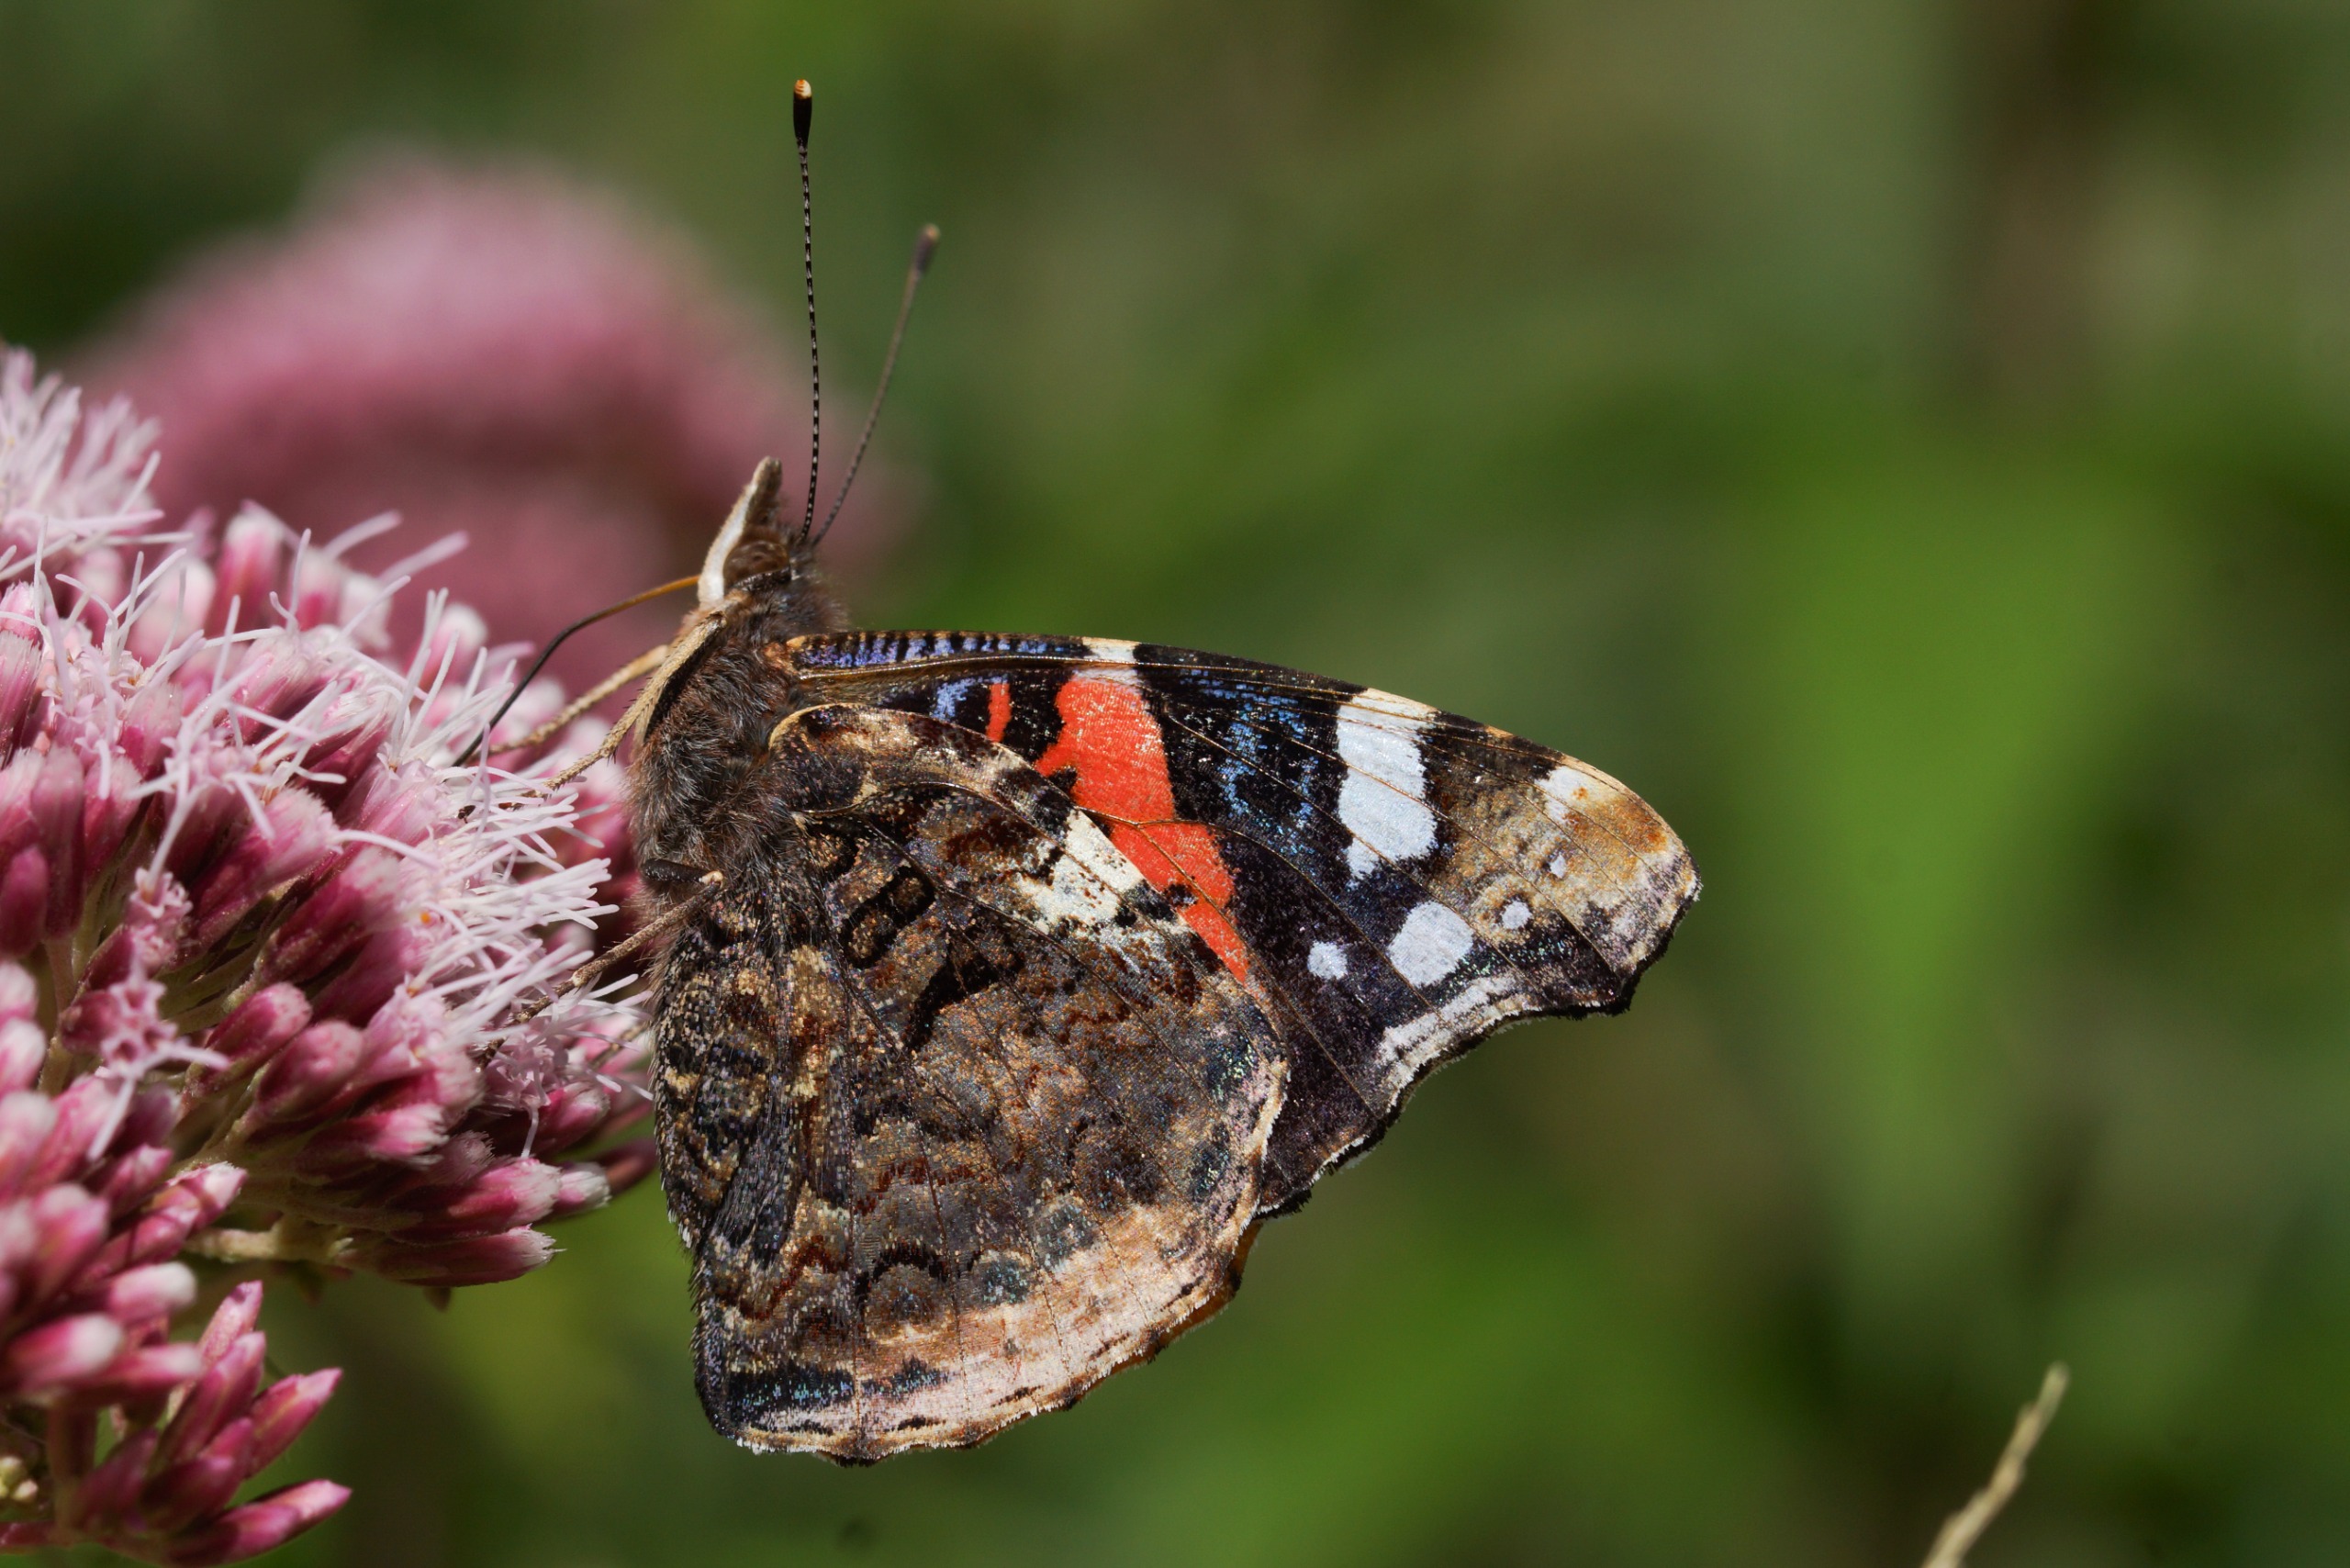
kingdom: Animalia
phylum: Arthropoda
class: Insecta
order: Lepidoptera
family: Nymphalidae
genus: Vanessa
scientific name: Vanessa atalanta
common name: Admiral
